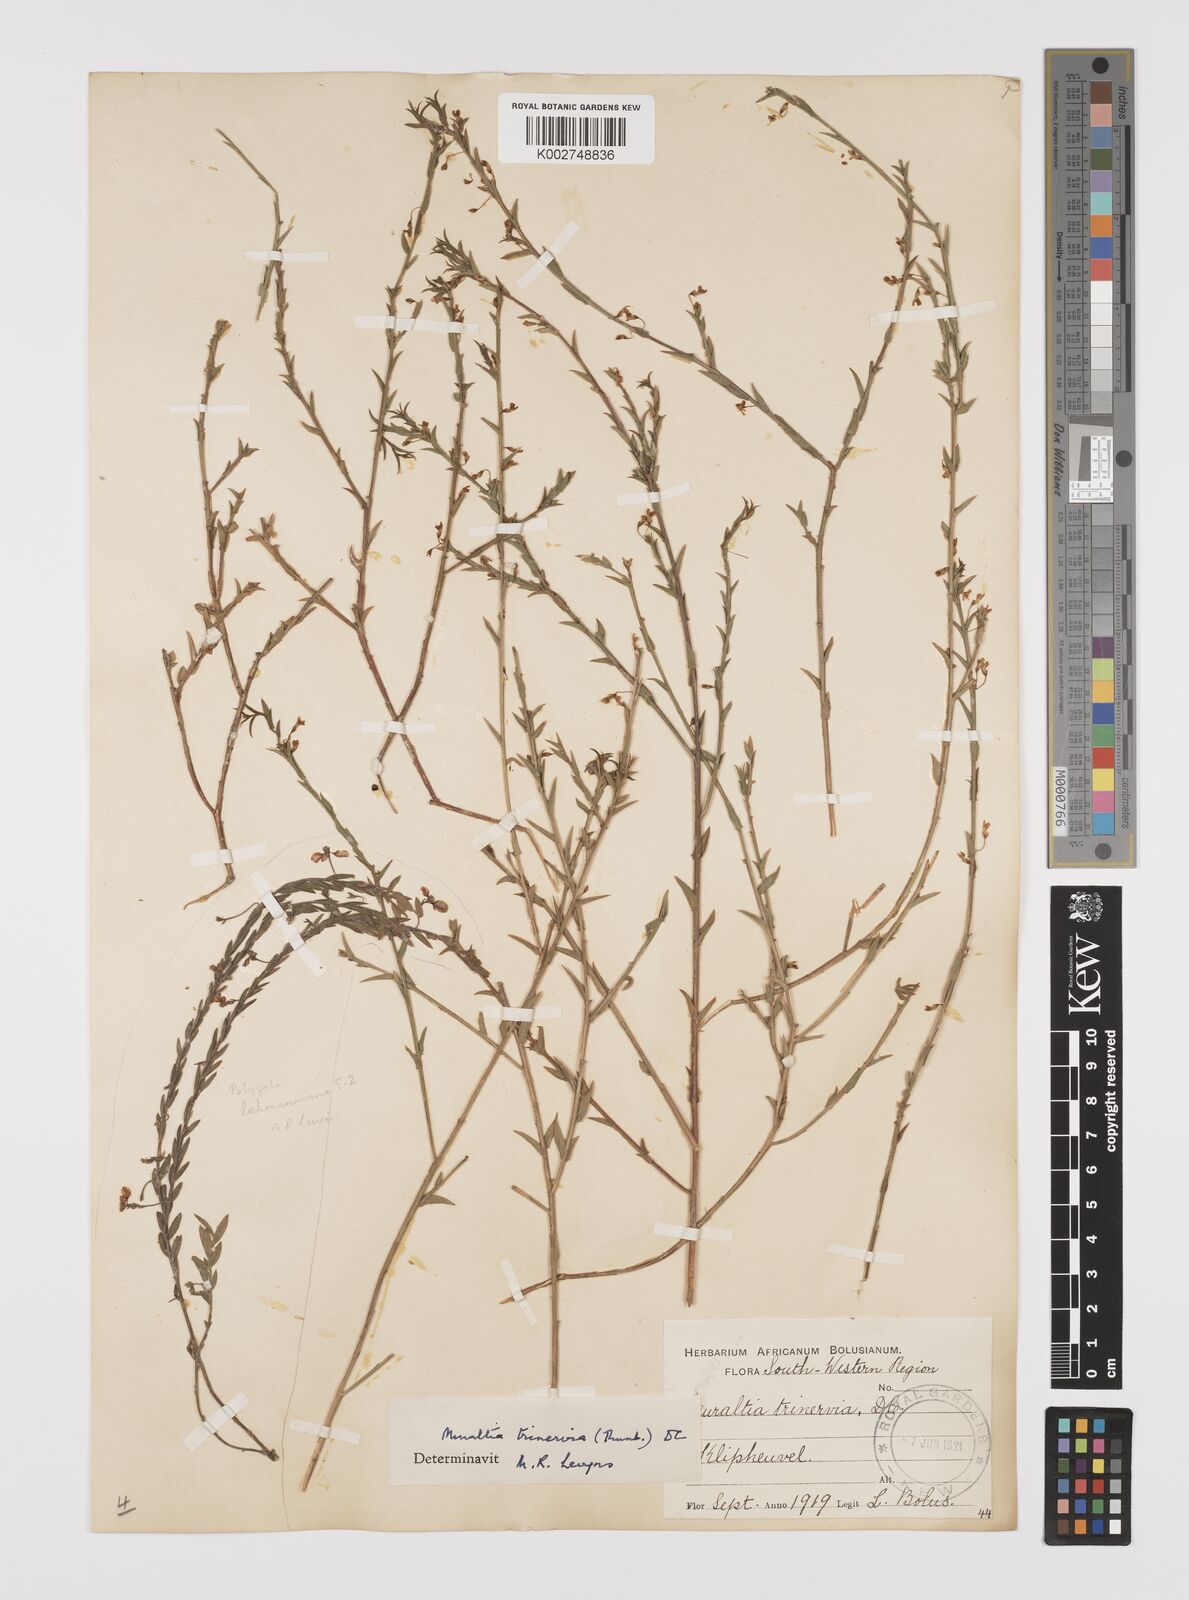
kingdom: Plantae
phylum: Tracheophyta
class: Magnoliopsida
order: Fabales
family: Polygalaceae
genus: Muraltia
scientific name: Muraltia trinervia
